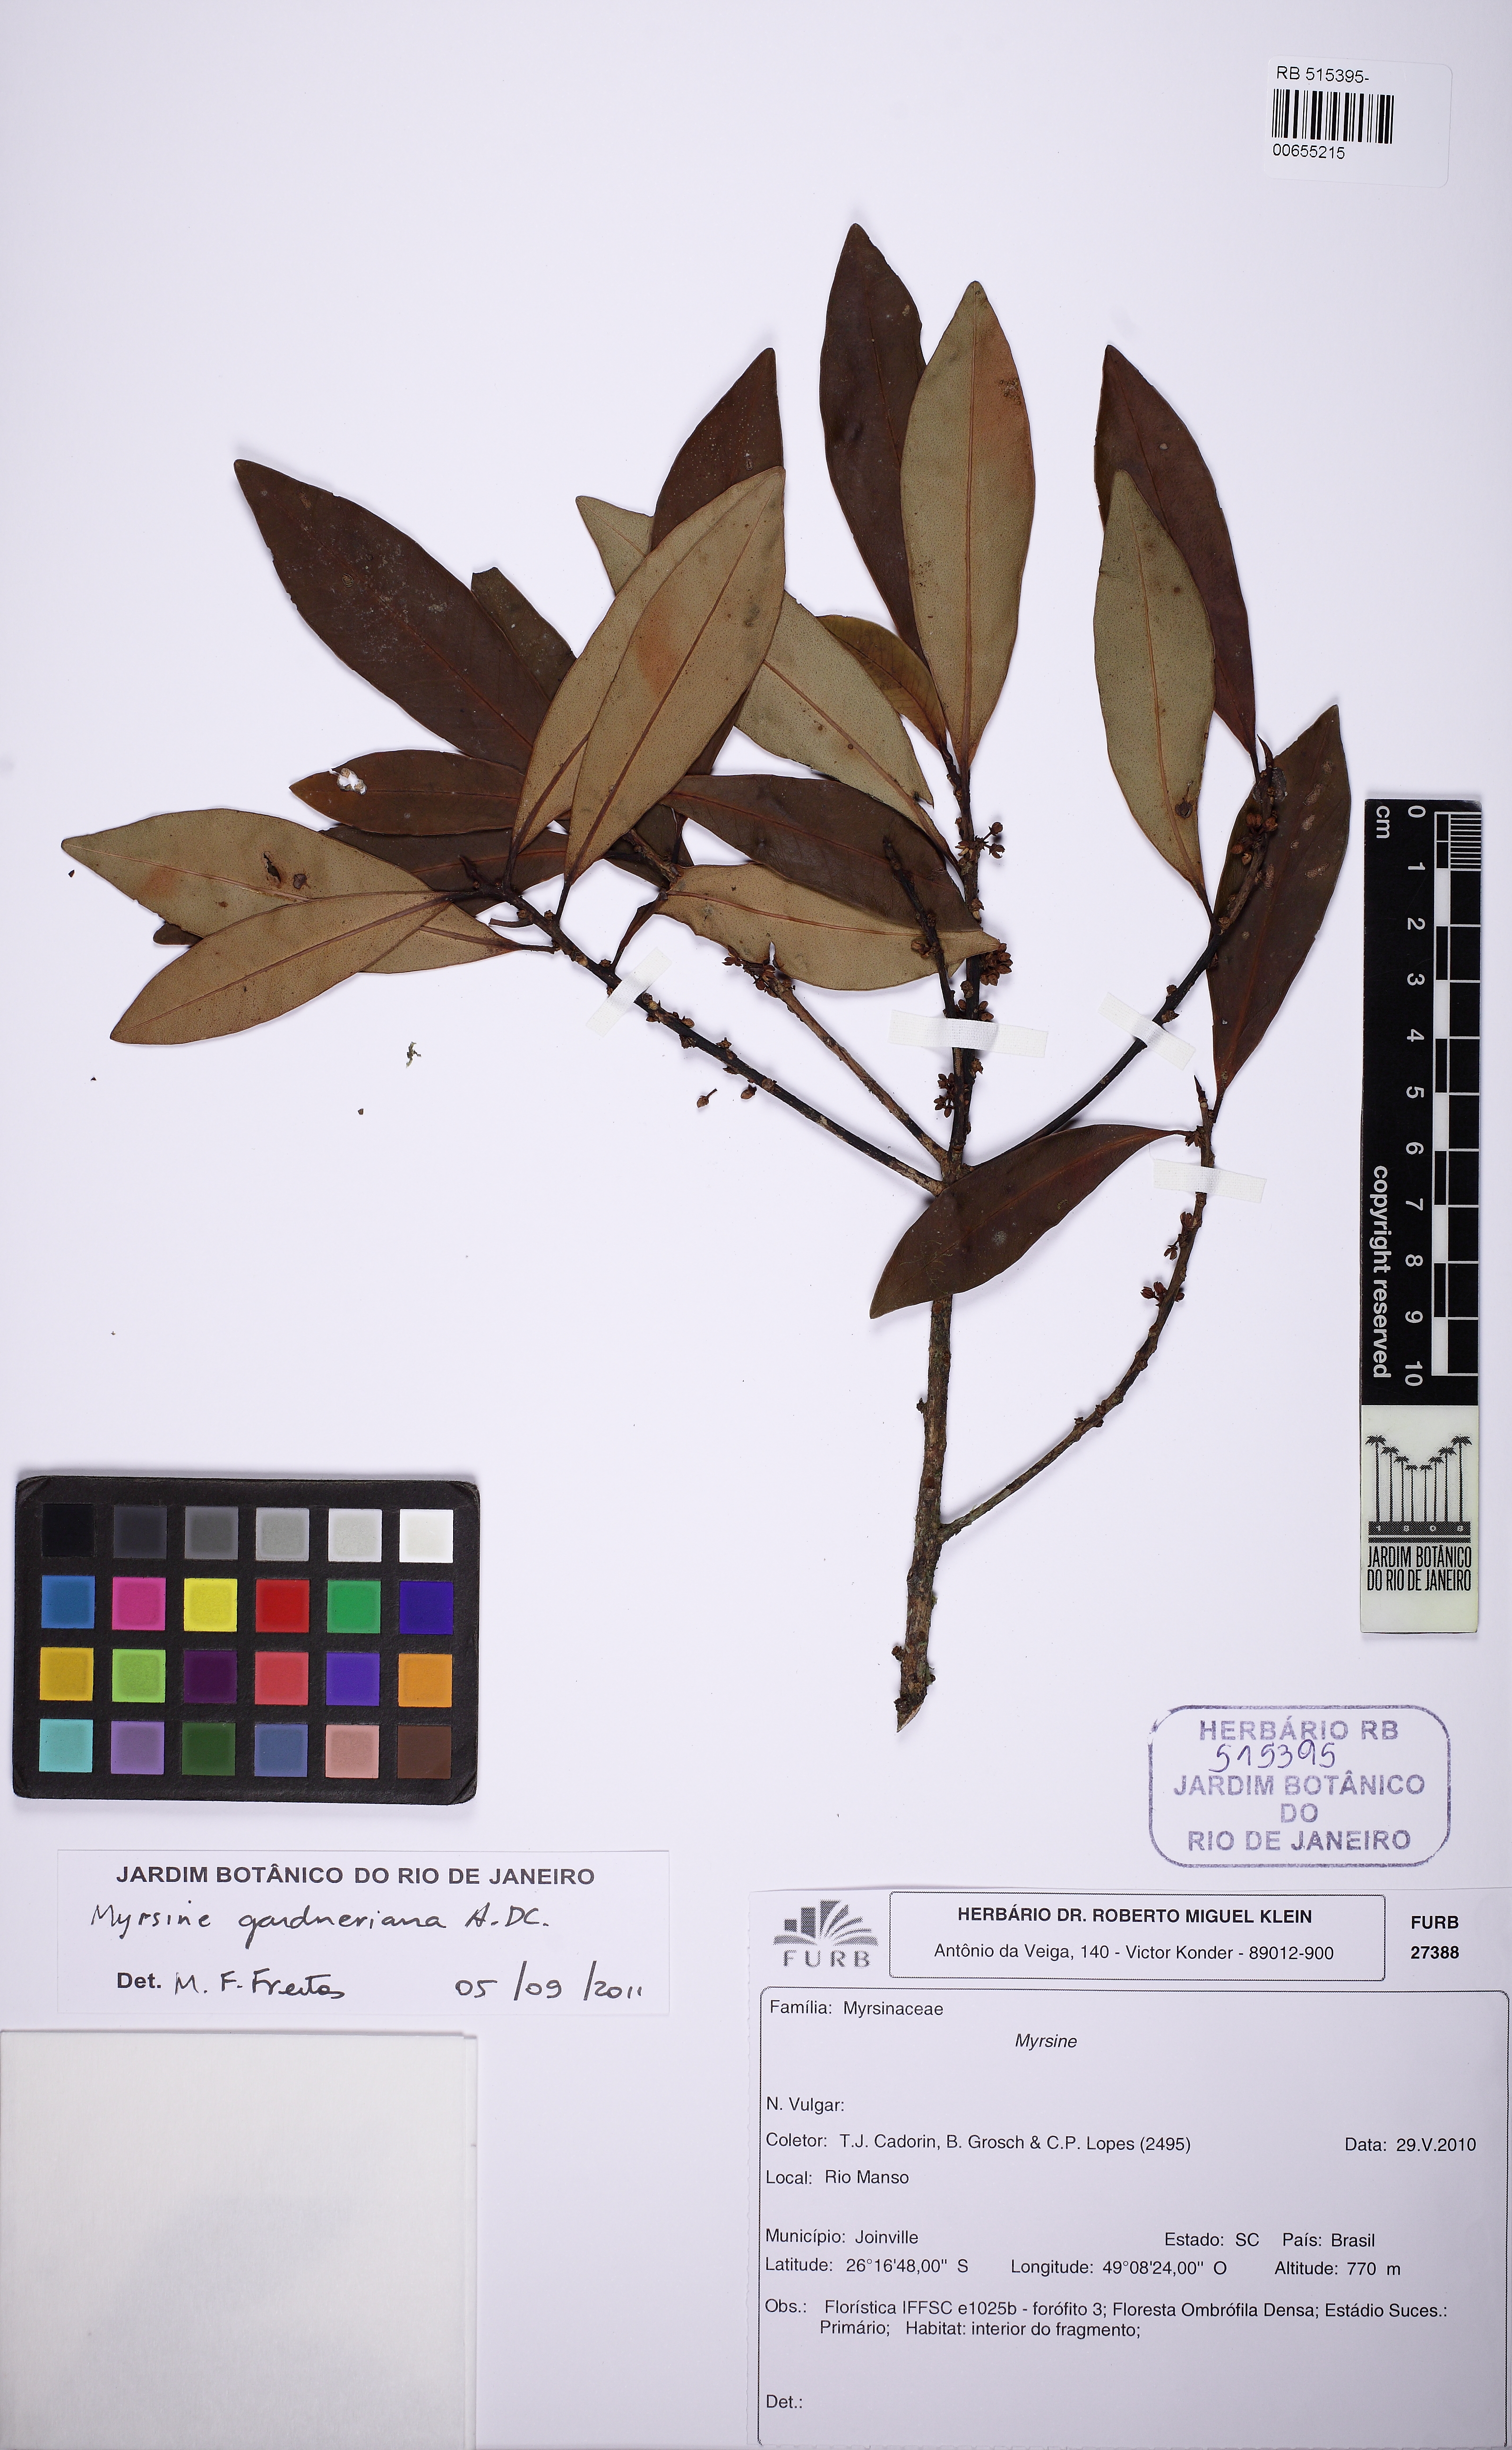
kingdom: Plantae
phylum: Tracheophyta
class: Magnoliopsida
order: Ericales
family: Primulaceae
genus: Myrsine
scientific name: Myrsine gardneriana
